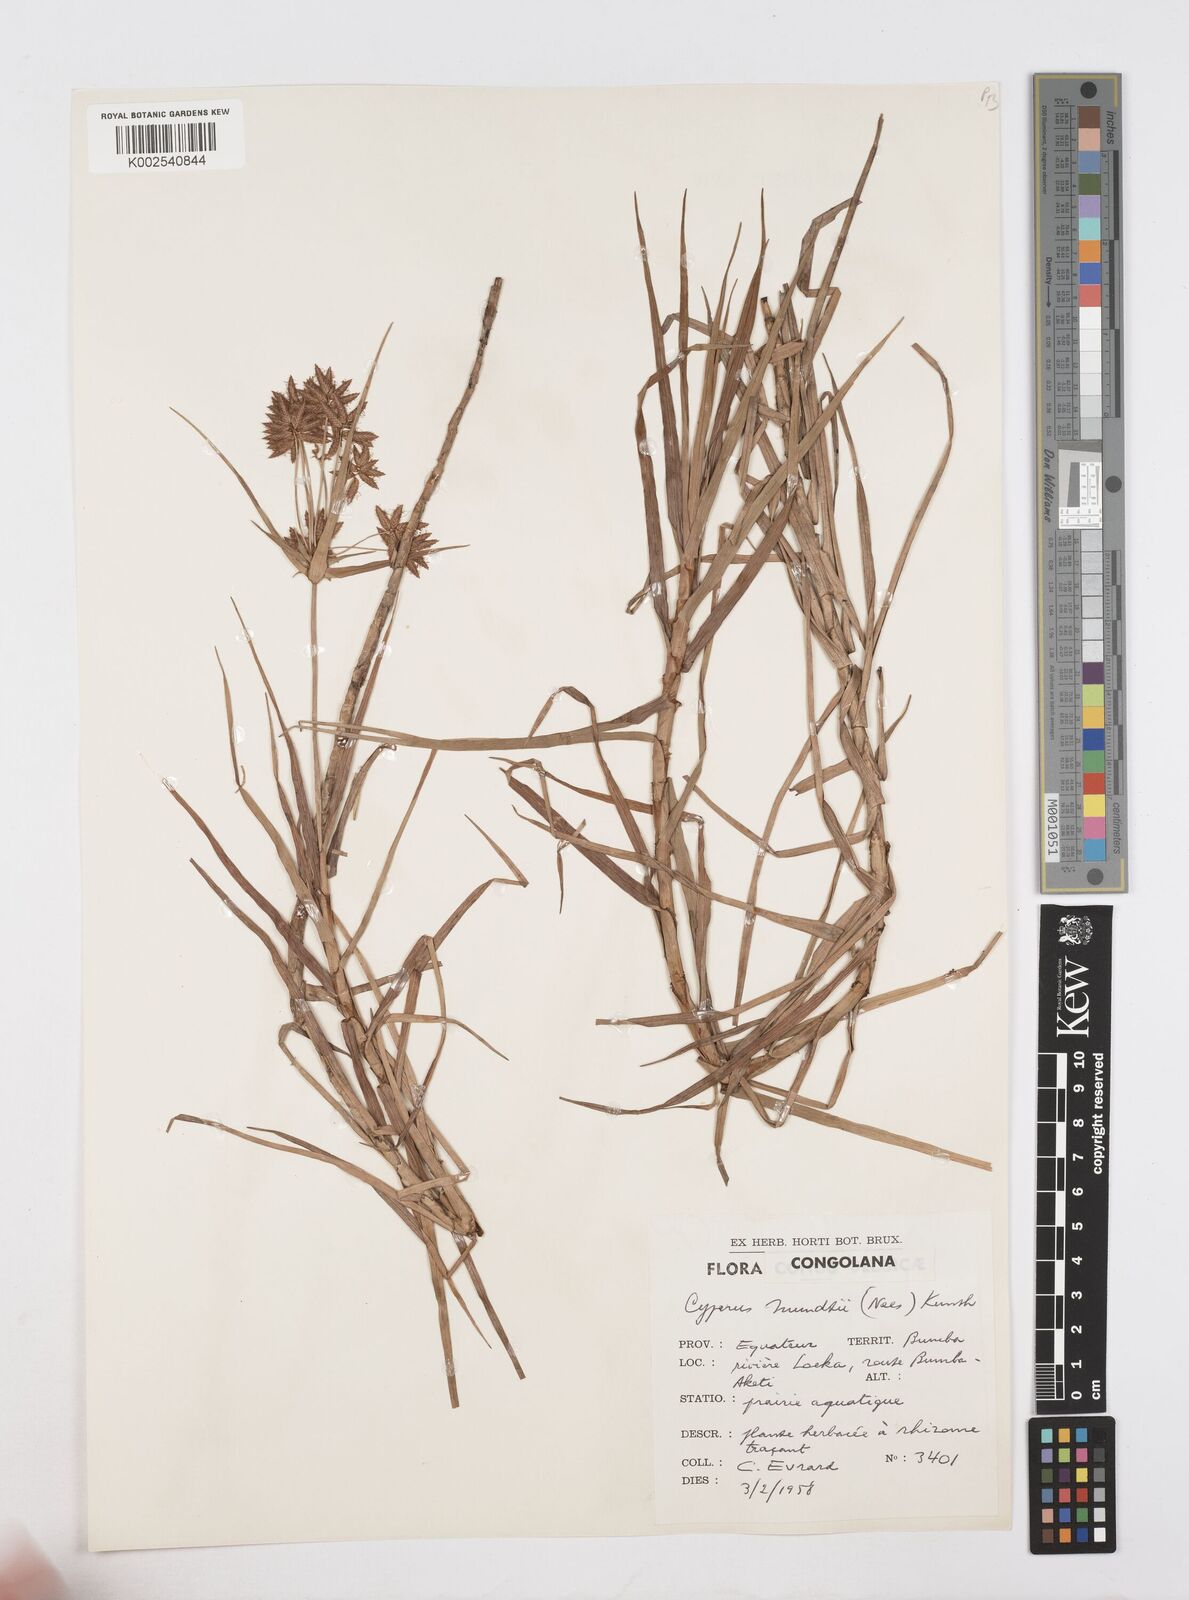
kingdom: Plantae
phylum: Tracheophyta
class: Liliopsida
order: Poales
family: Cyperaceae
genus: Cyperus
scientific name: Cyperus mundii
